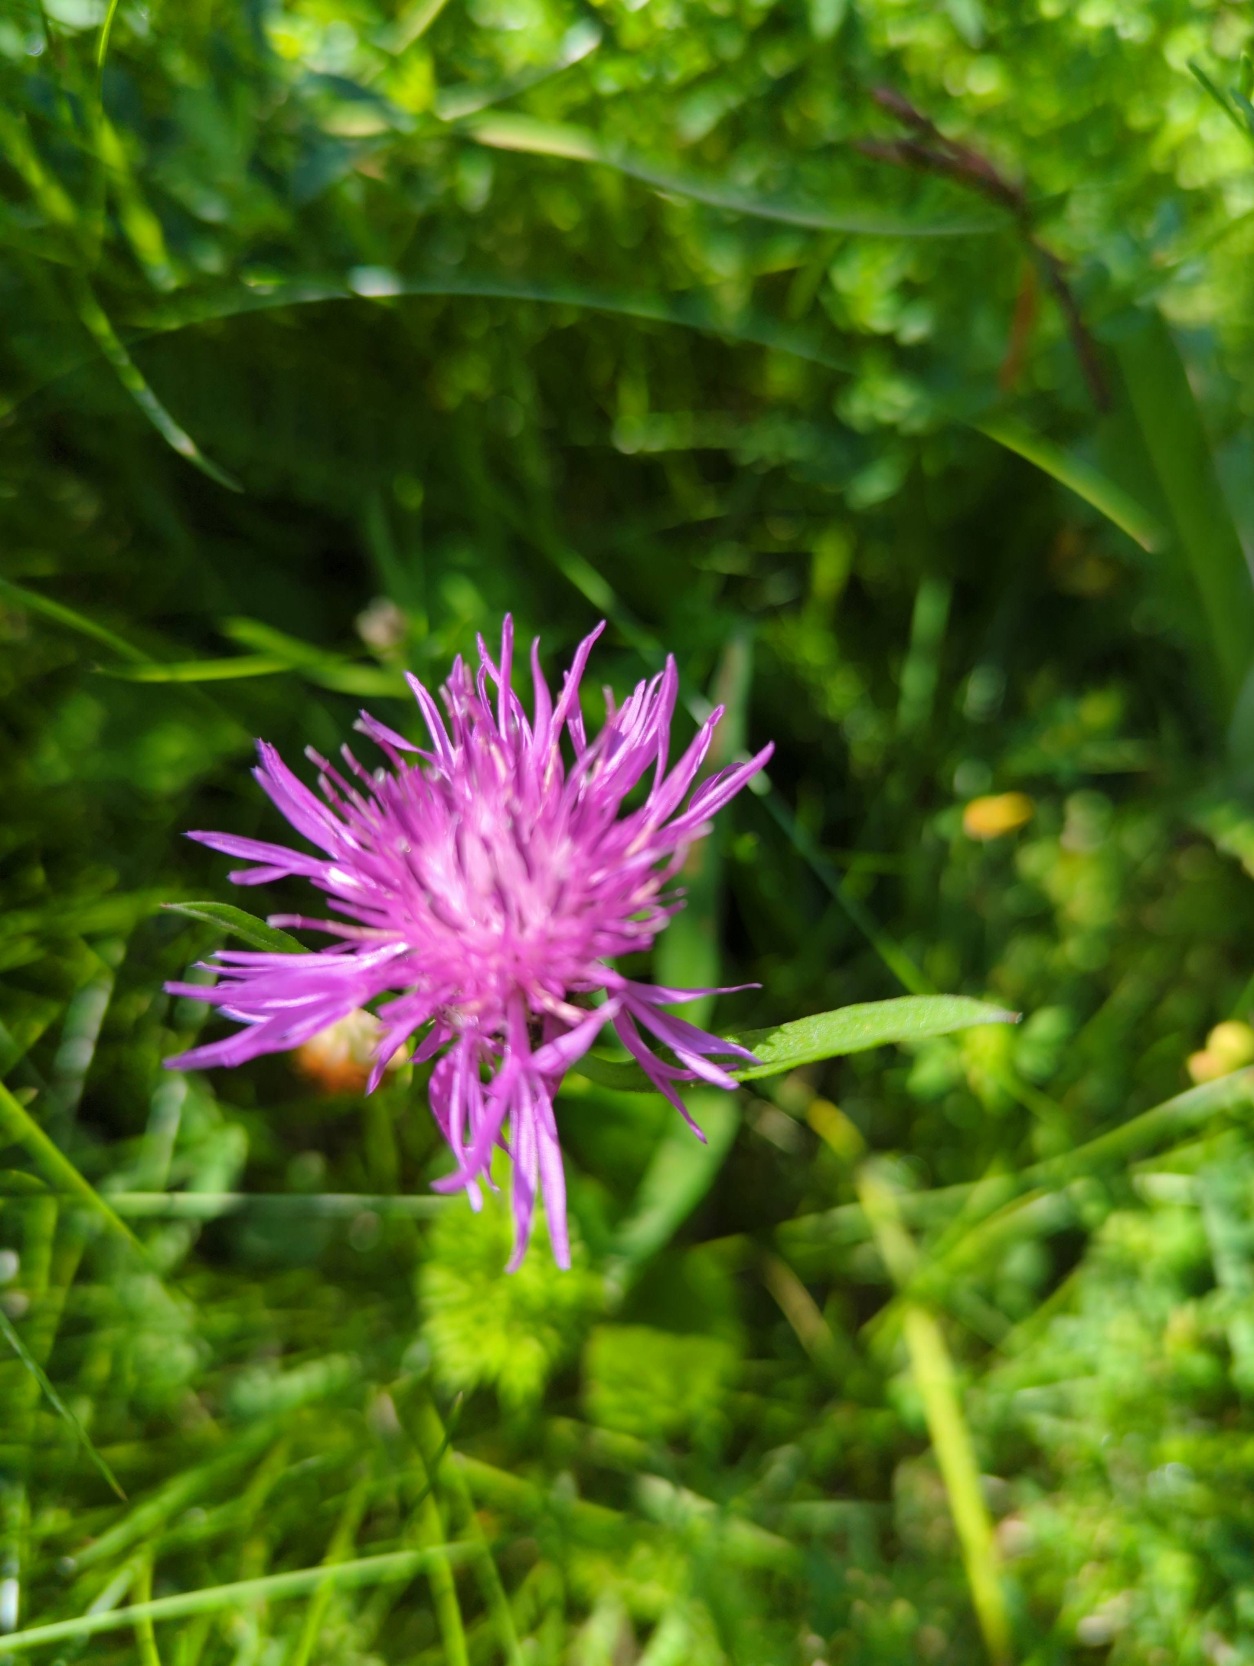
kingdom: Plantae
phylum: Tracheophyta
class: Magnoliopsida
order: Asterales
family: Asteraceae
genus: Centaurea
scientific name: Centaurea jacea
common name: Almindelig knopurt
